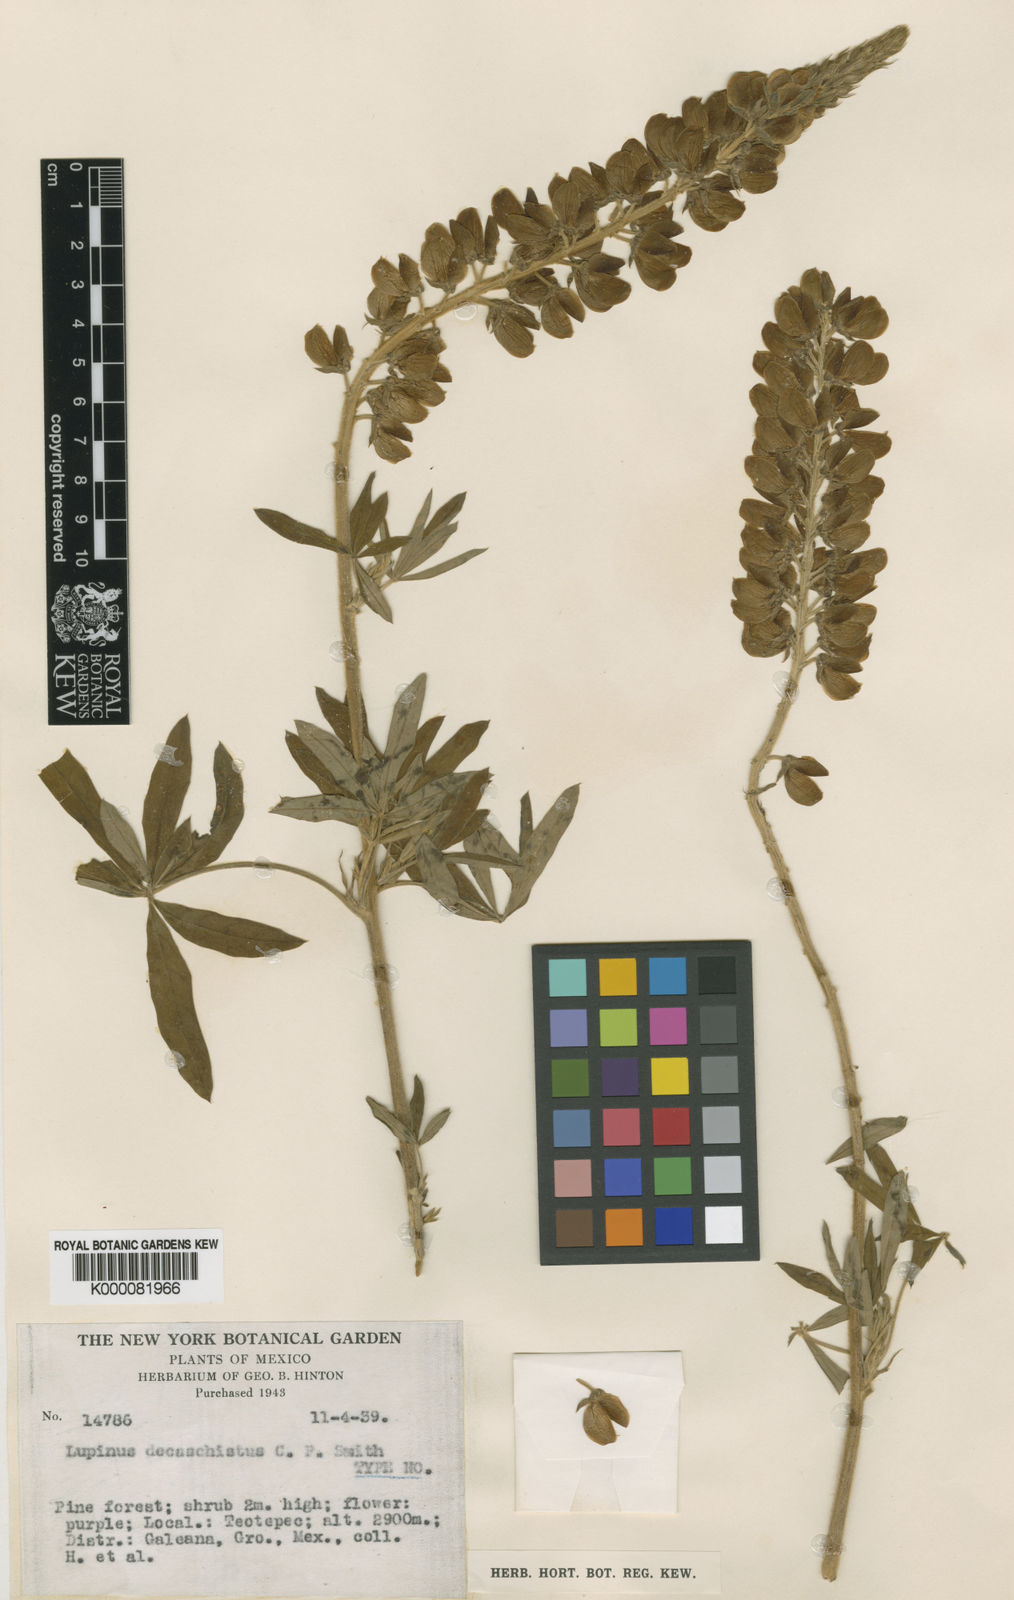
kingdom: Plantae
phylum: Tracheophyta
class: Magnoliopsida
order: Fabales
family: Fabaceae
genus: Lupinus
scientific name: Lupinus decaschistus
